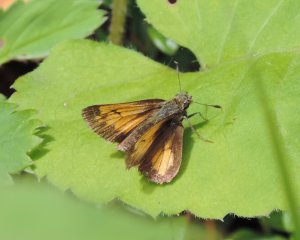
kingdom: Animalia
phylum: Arthropoda
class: Insecta
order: Lepidoptera
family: Hesperiidae
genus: Lon
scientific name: Lon hobomok
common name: Hobomok Skipper
